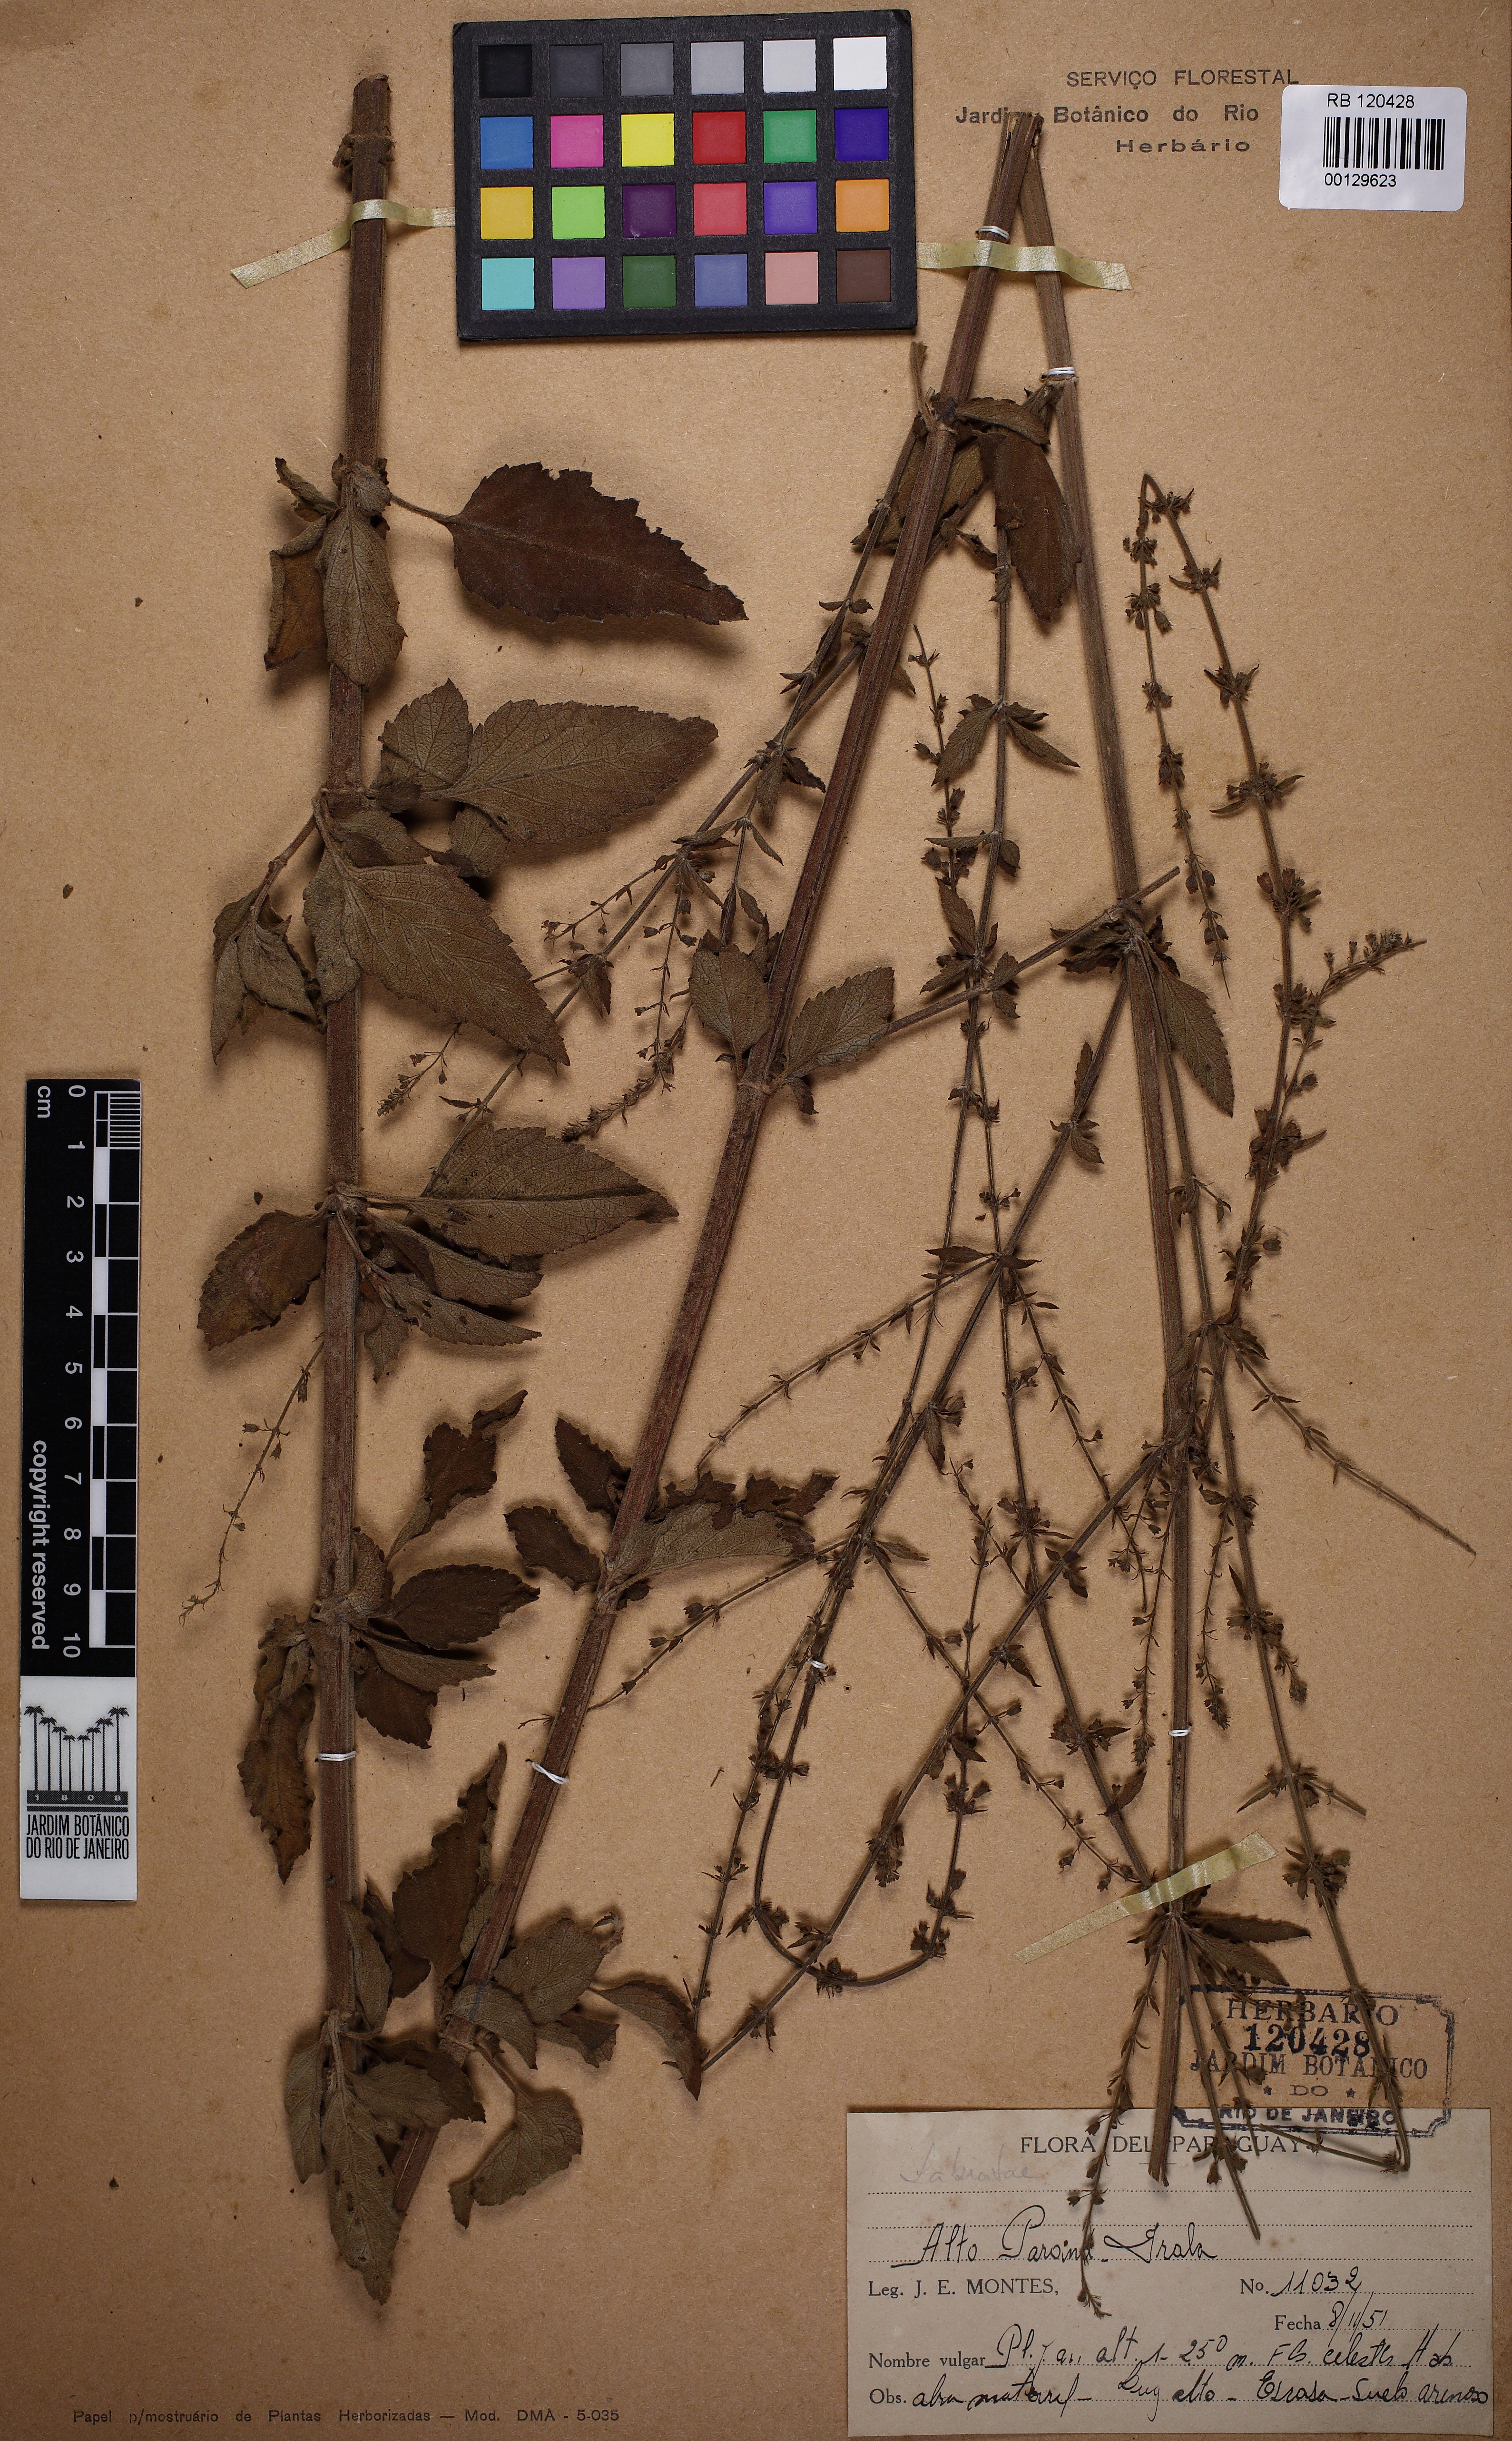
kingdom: Plantae
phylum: Tracheophyta
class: Magnoliopsida
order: Lamiales
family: Lamiaceae
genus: Condea
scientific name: Condea
